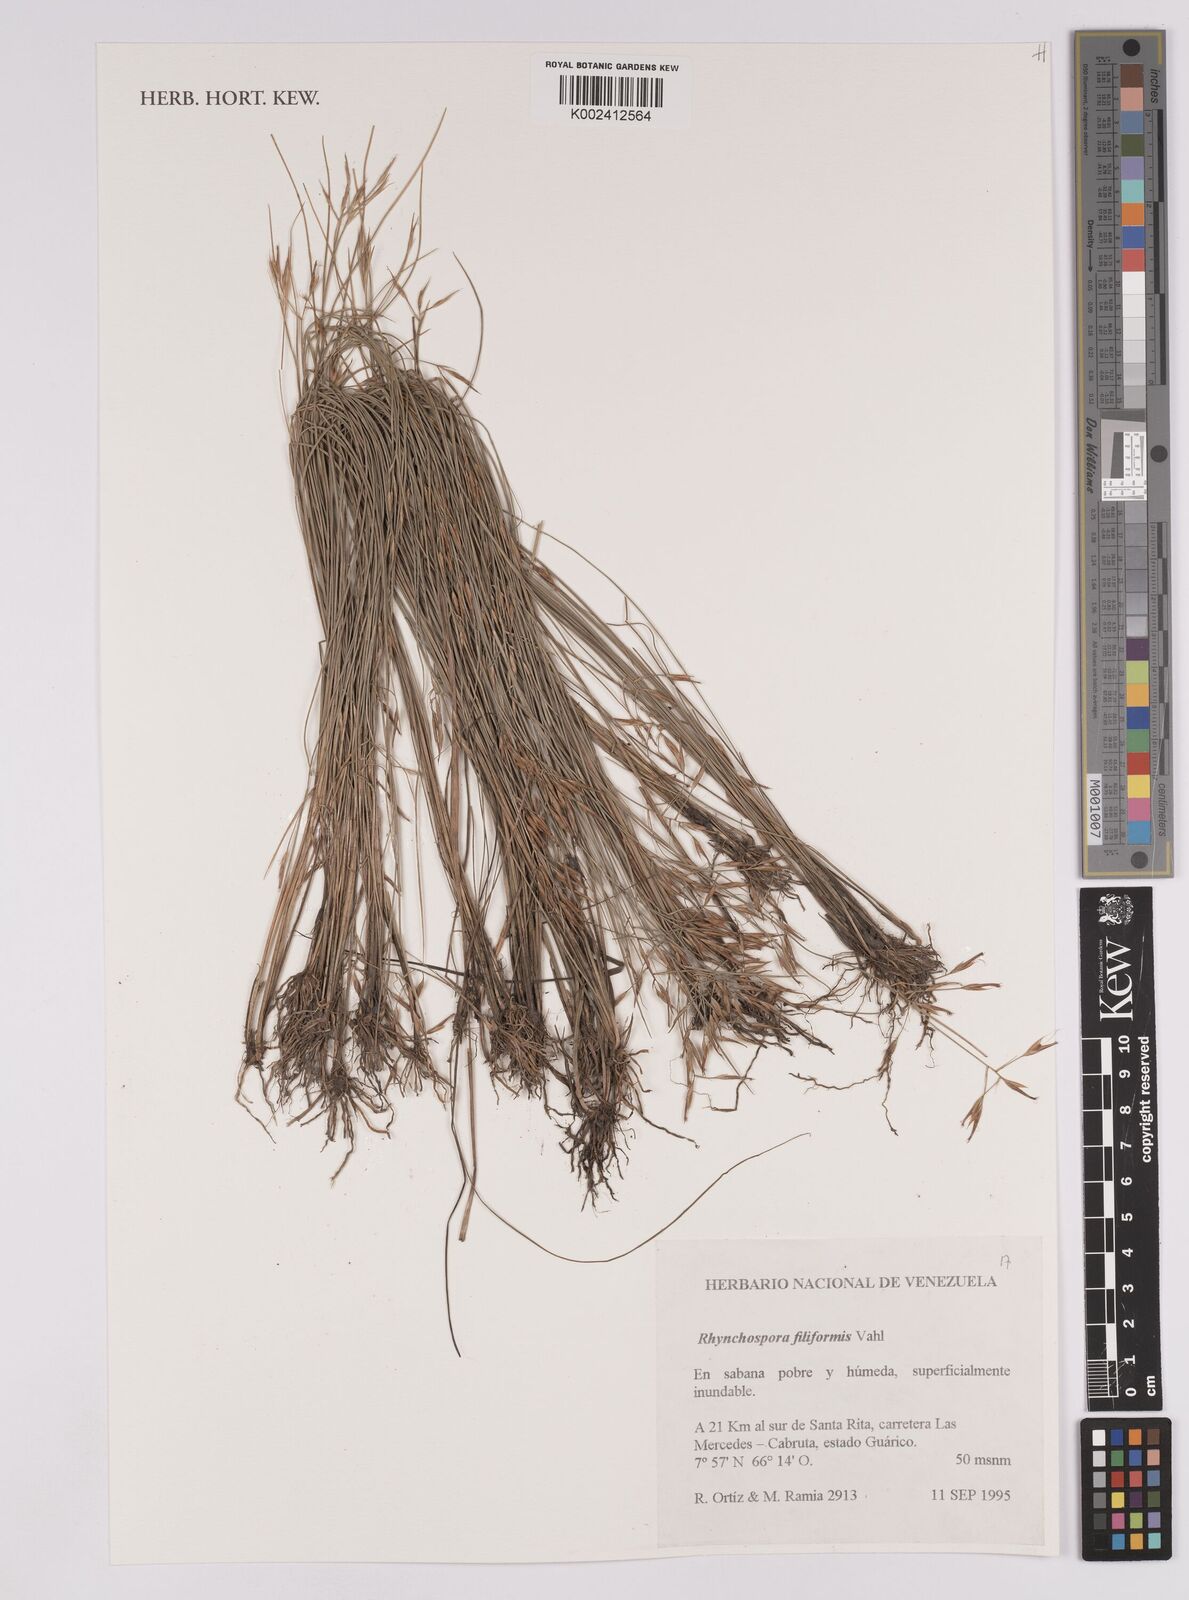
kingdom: Plantae
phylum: Tracheophyta
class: Liliopsida
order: Poales
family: Cyperaceae
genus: Rhynchospora
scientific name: Rhynchospora filiformis
